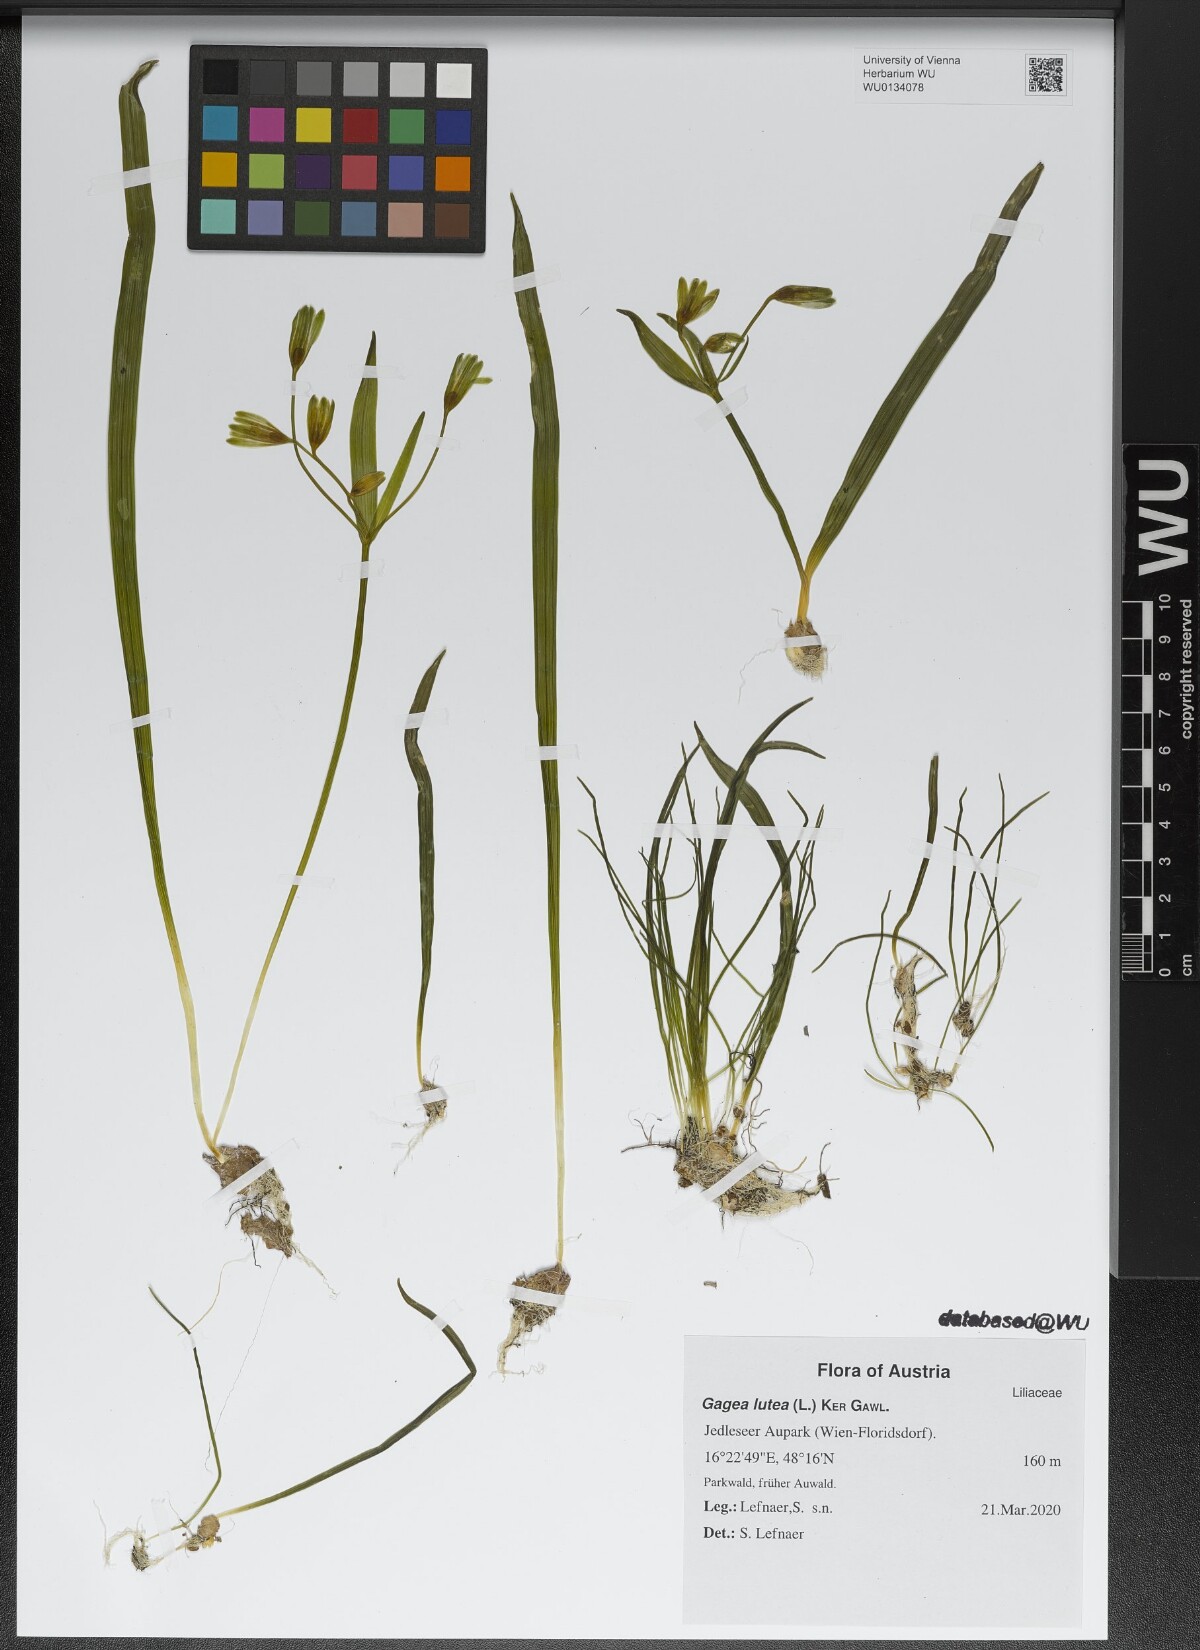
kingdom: Plantae
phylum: Tracheophyta
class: Liliopsida
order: Liliales
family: Liliaceae
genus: Gagea
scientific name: Gagea lutea
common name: Yellow star-of-bethlehem
